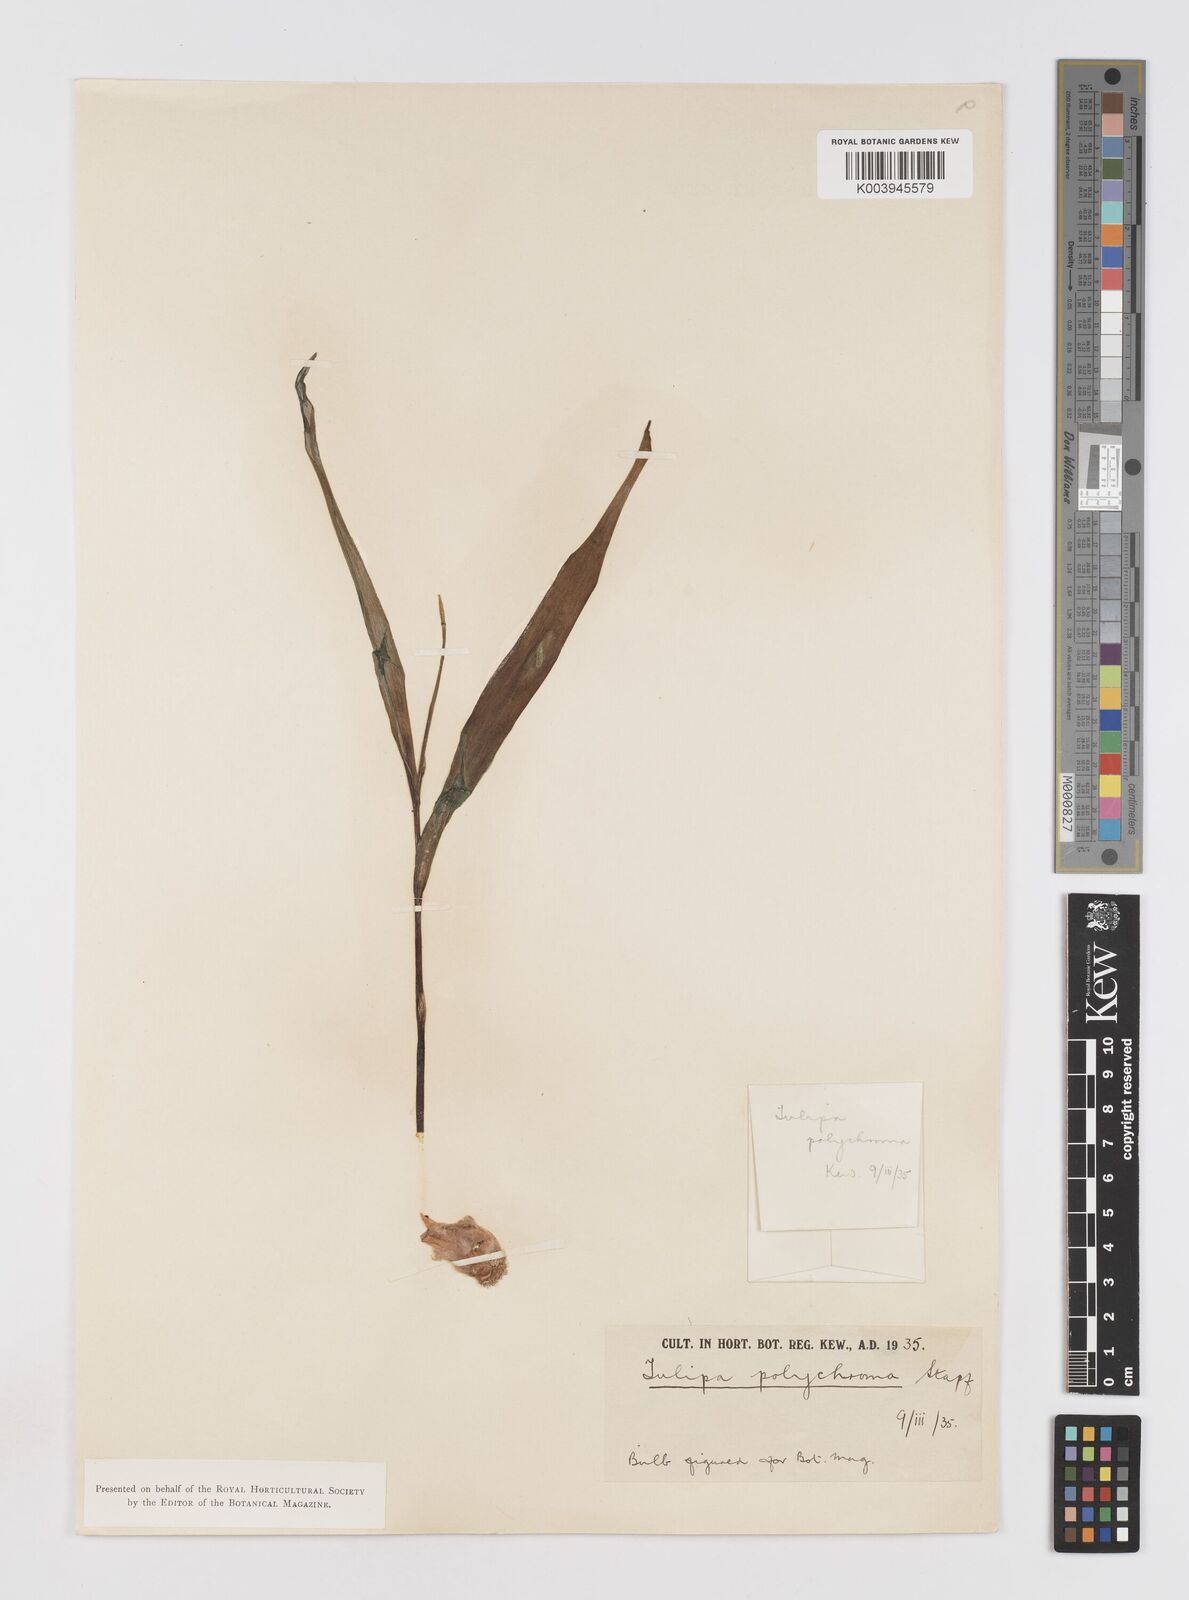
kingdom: Plantae
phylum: Tracheophyta
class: Liliopsida
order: Liliales
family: Liliaceae
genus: Tulipa
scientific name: Tulipa biflora
